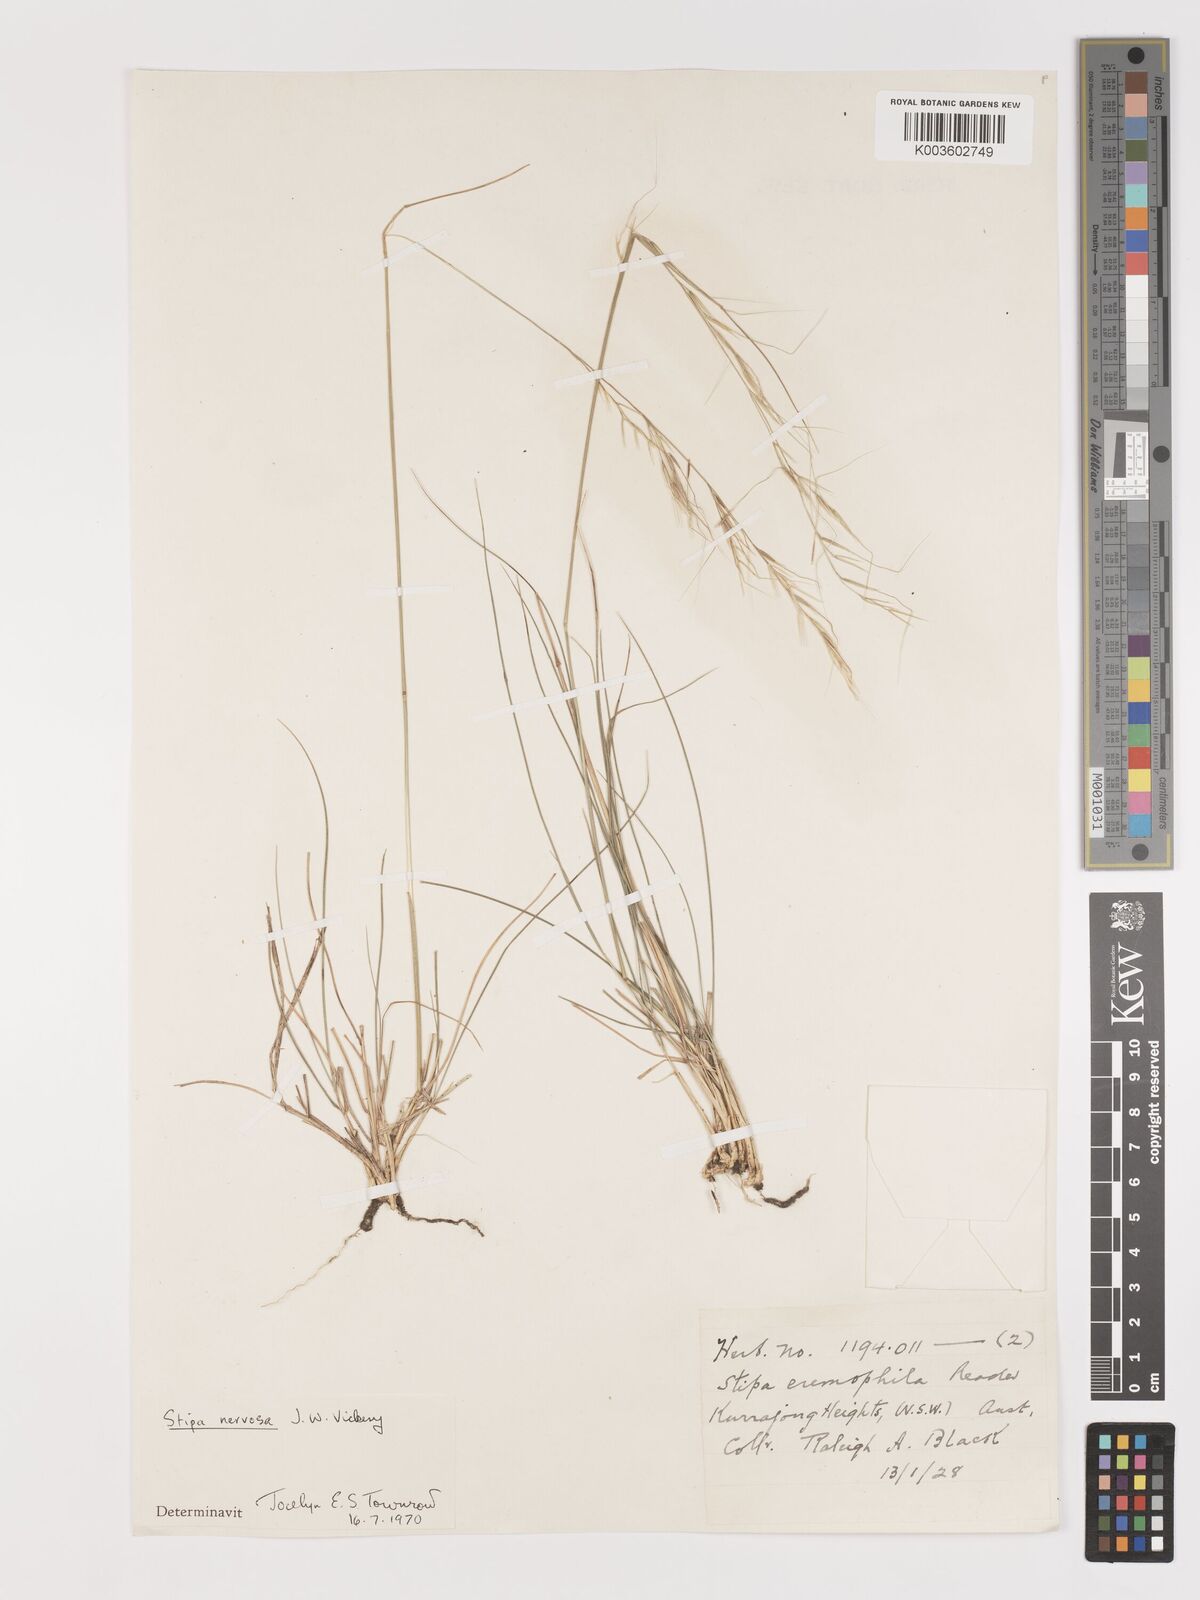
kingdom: Plantae
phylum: Tracheophyta
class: Liliopsida
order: Poales
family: Poaceae
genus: Austrostipa
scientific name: Austrostipa rudis
